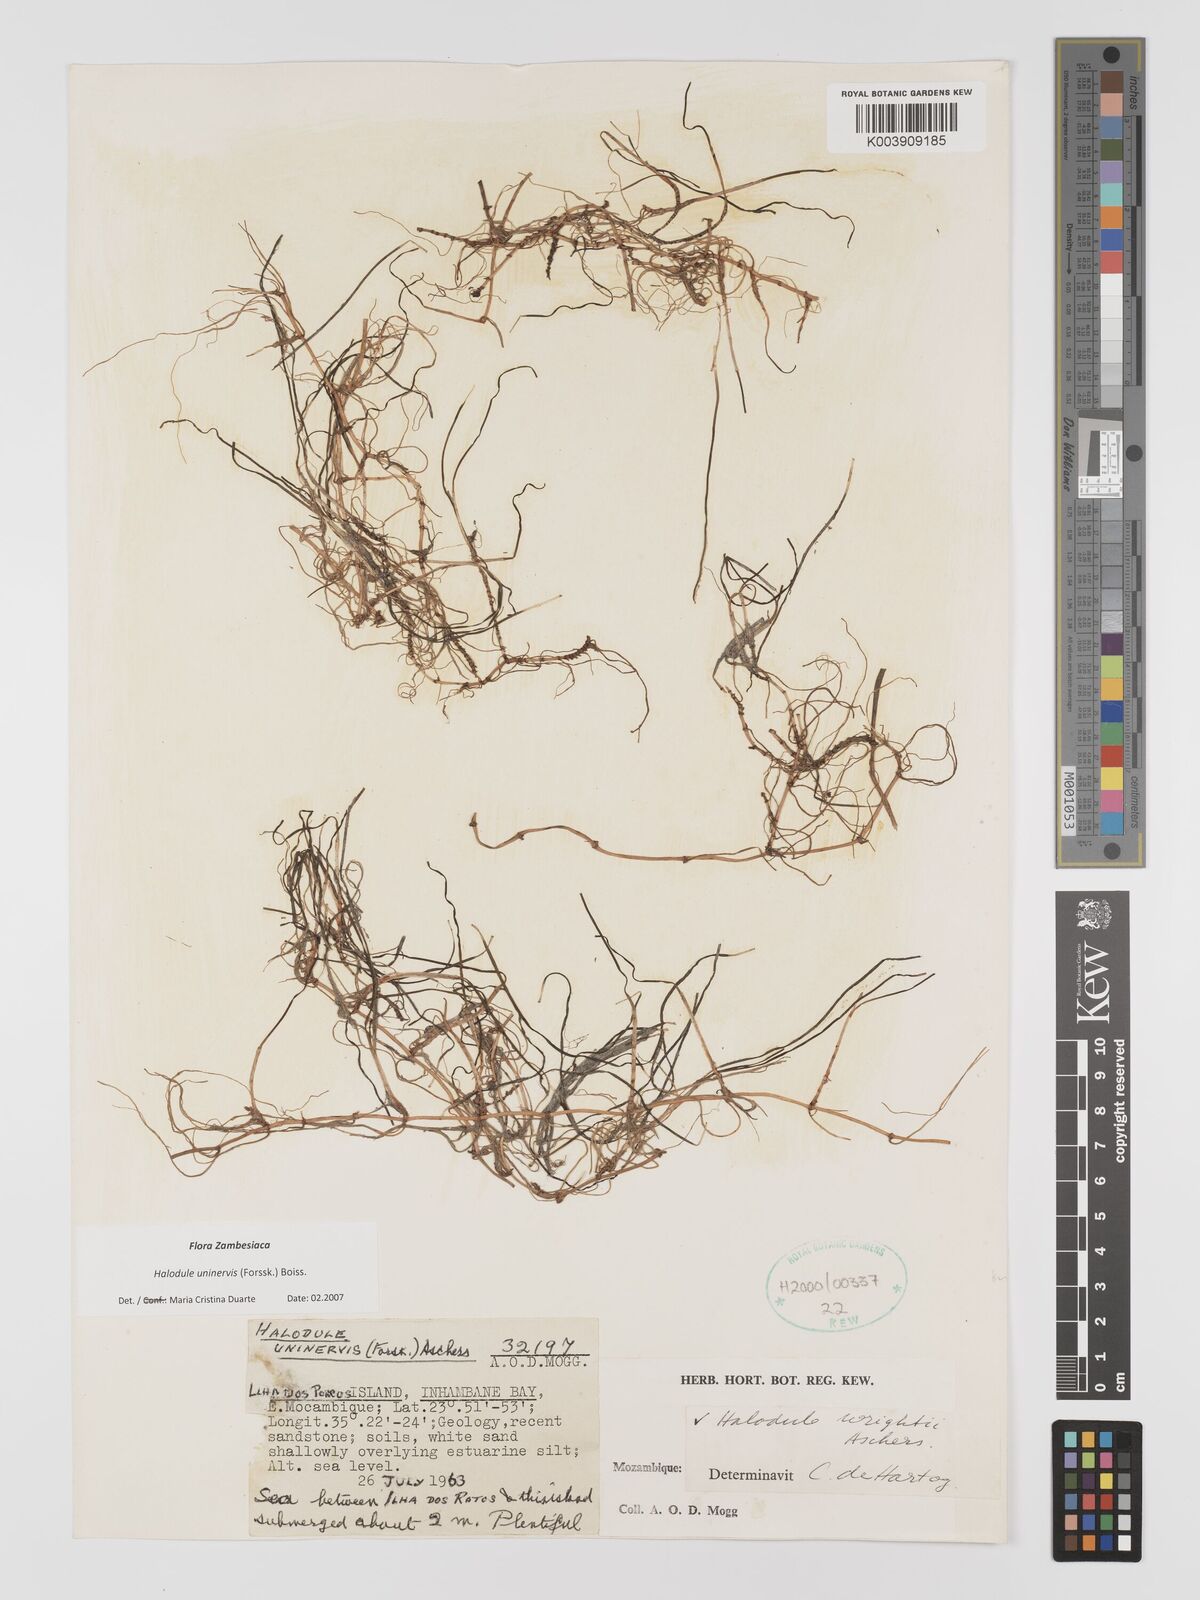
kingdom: Plantae
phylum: Tracheophyta
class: Liliopsida
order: Alismatales
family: Cymodoceaceae
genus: Halodule
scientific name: Halodule uninervis
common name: Narrowleaf seagrass
